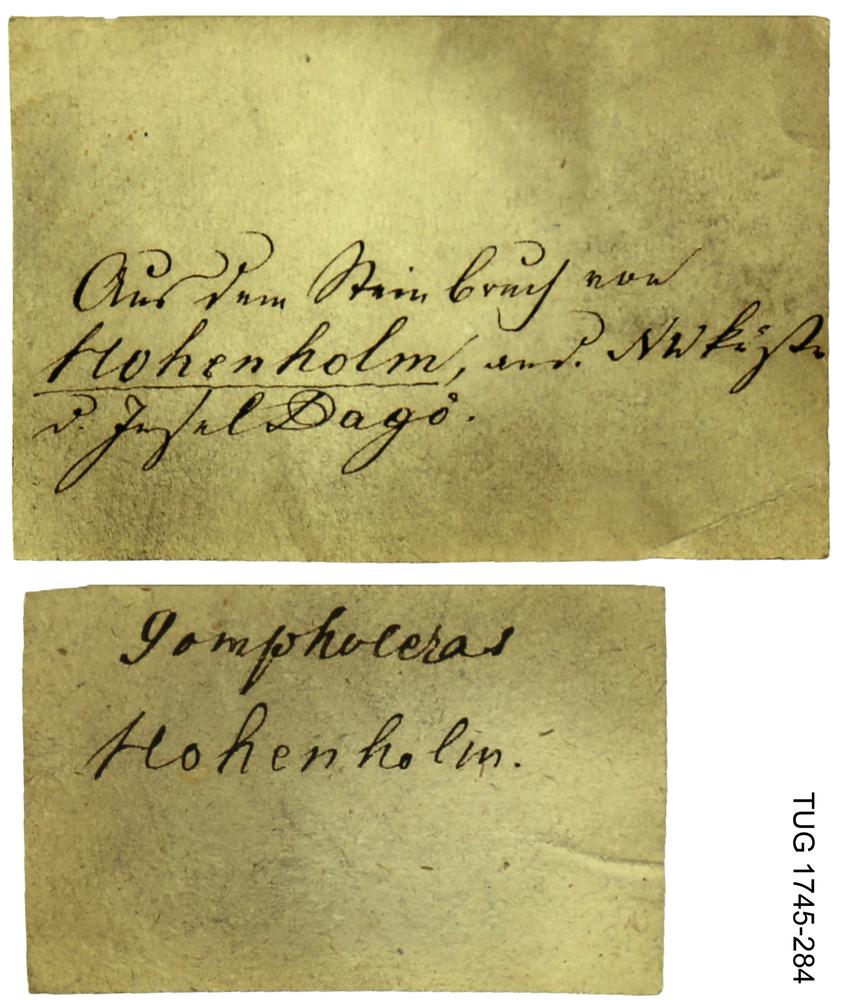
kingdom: Animalia
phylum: Mollusca
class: Cephalopoda
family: Tarphyceratidae
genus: Diestoceras
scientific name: Diestoceras
